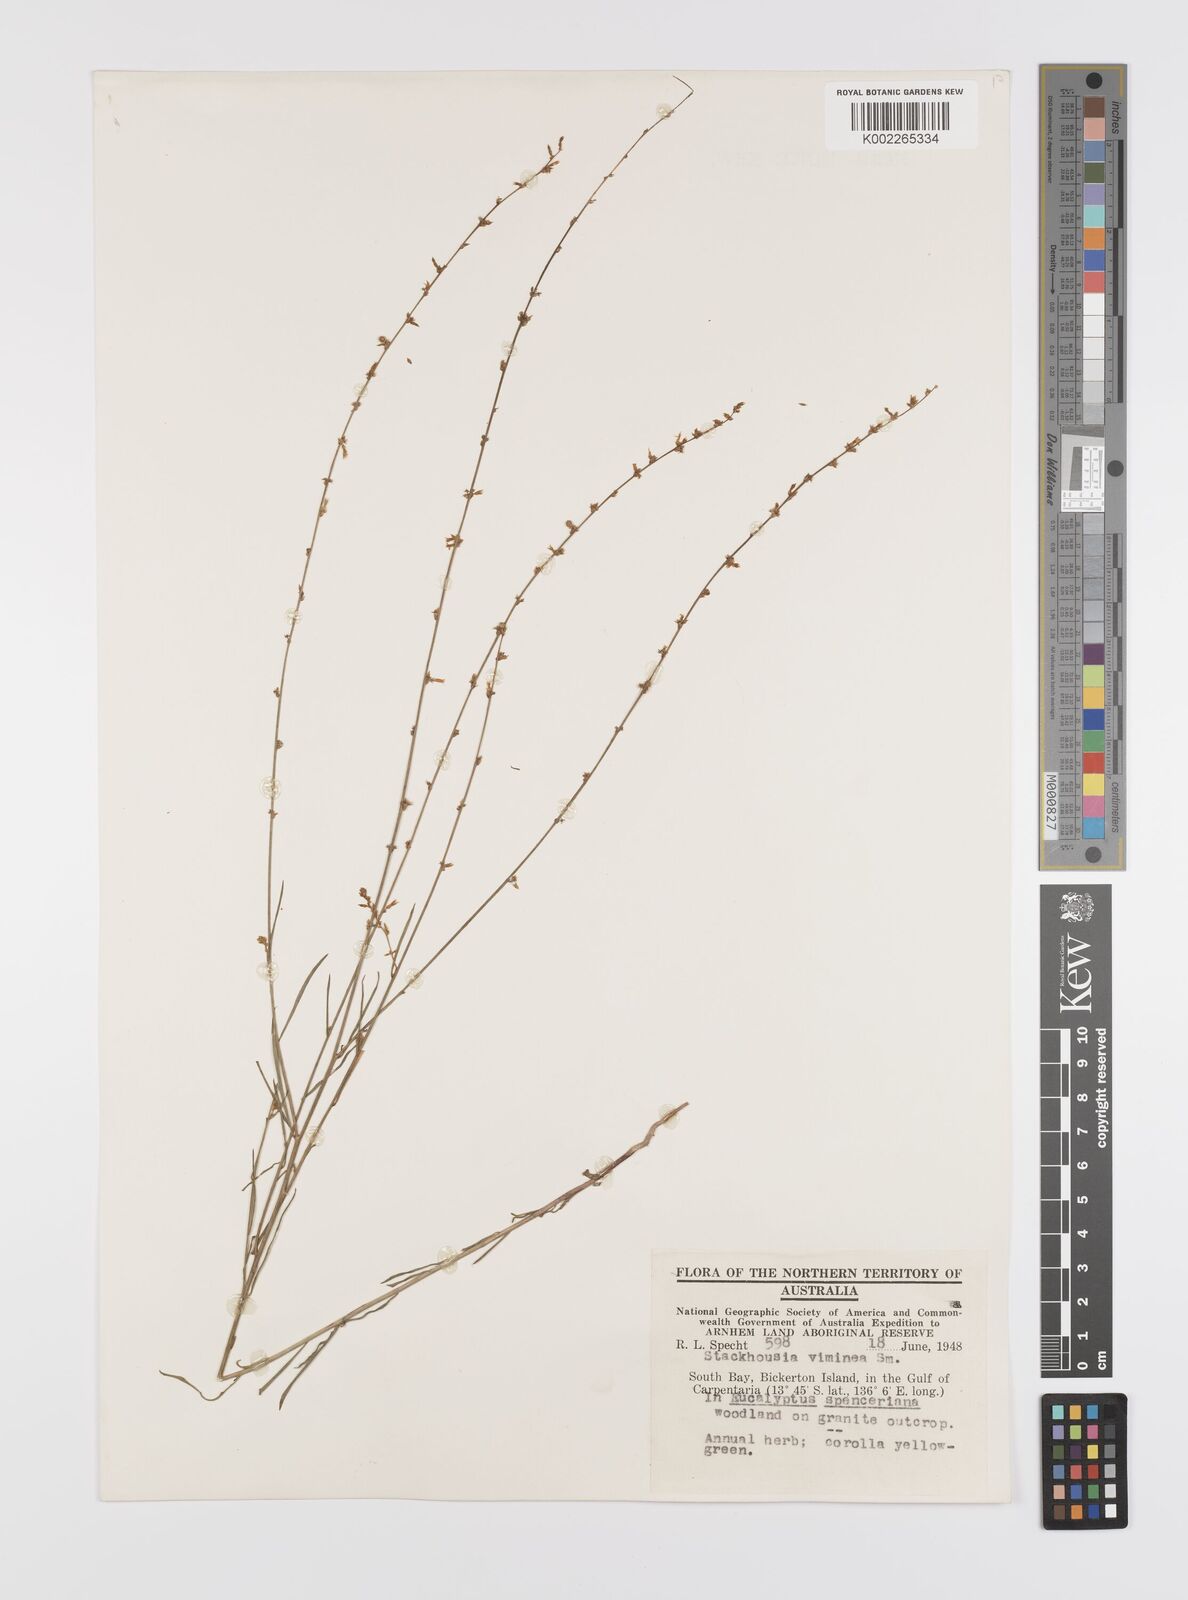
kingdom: Plantae
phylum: Tracheophyta
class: Magnoliopsida
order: Celastrales
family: Celastraceae
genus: Stackhousia
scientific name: Stackhousia viminea
